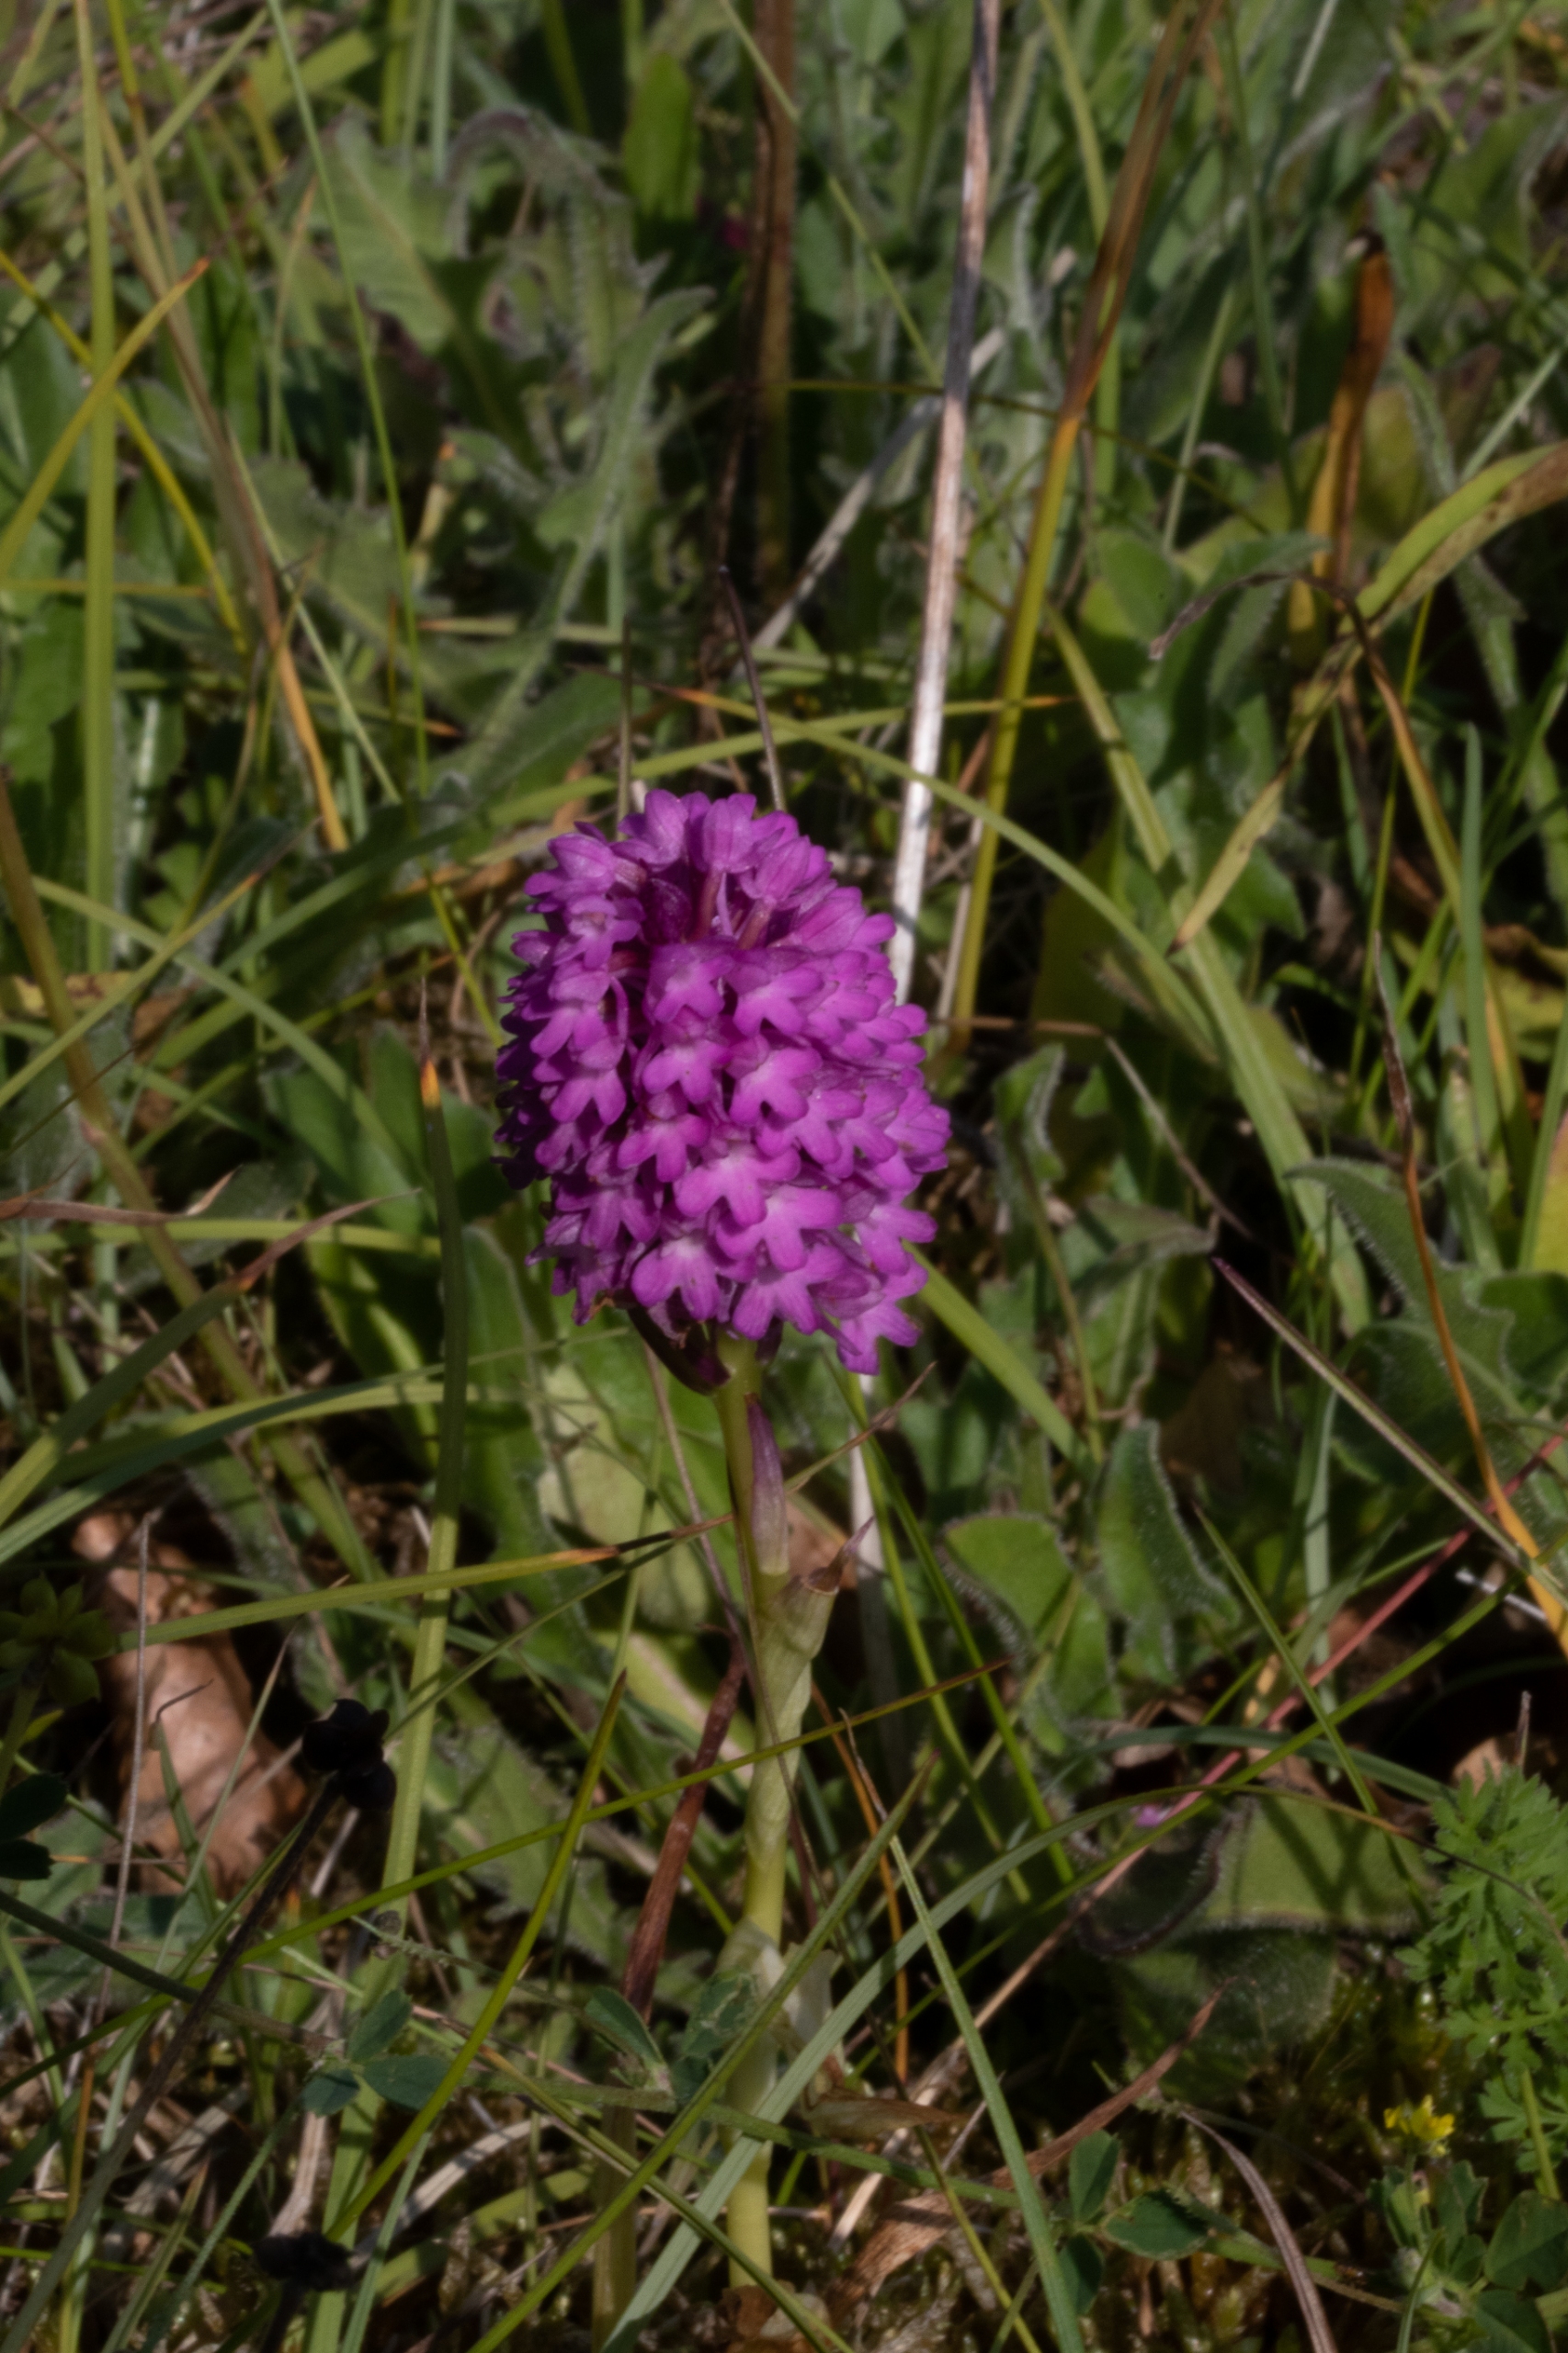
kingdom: Plantae
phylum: Tracheophyta
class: Liliopsida
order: Asparagales
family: Orchidaceae
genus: Anacamptis
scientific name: Anacamptis pyramidalis
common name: Horndrager
